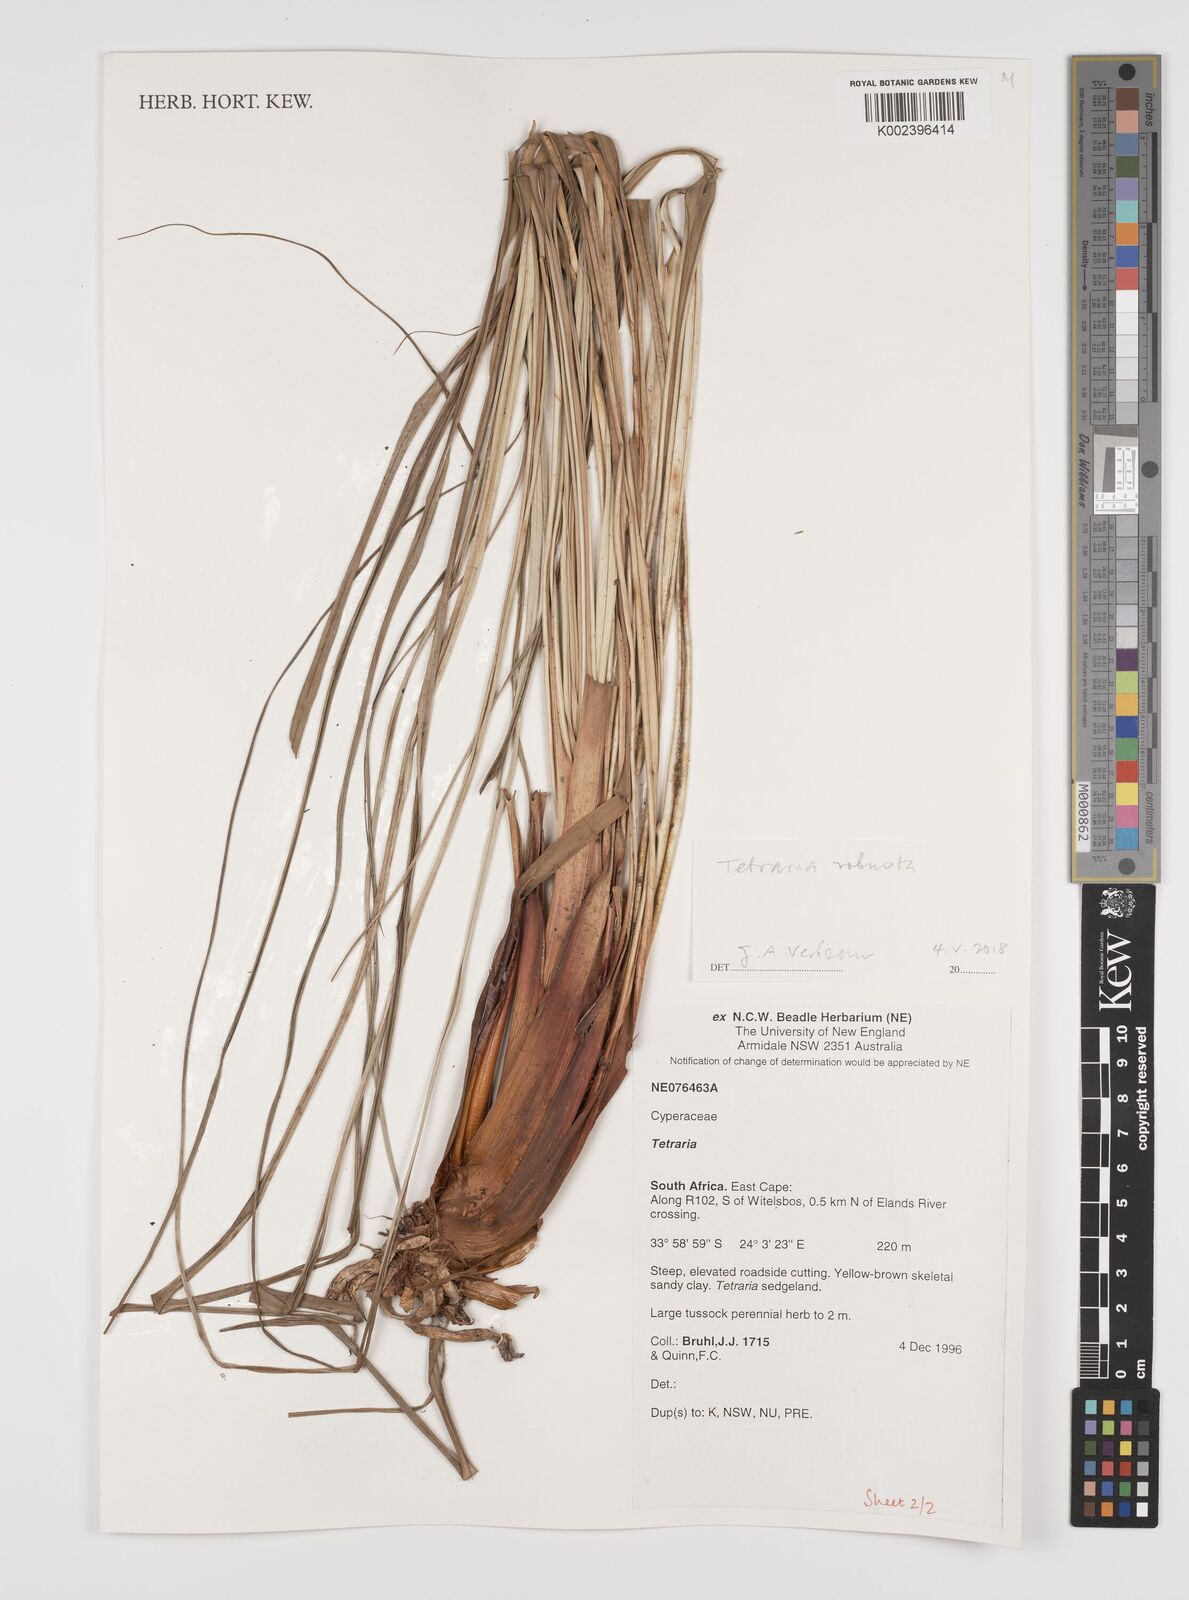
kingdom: Plantae
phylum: Tracheophyta
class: Liliopsida
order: Poales
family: Cyperaceae
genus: Tetraria
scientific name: Tetraria
